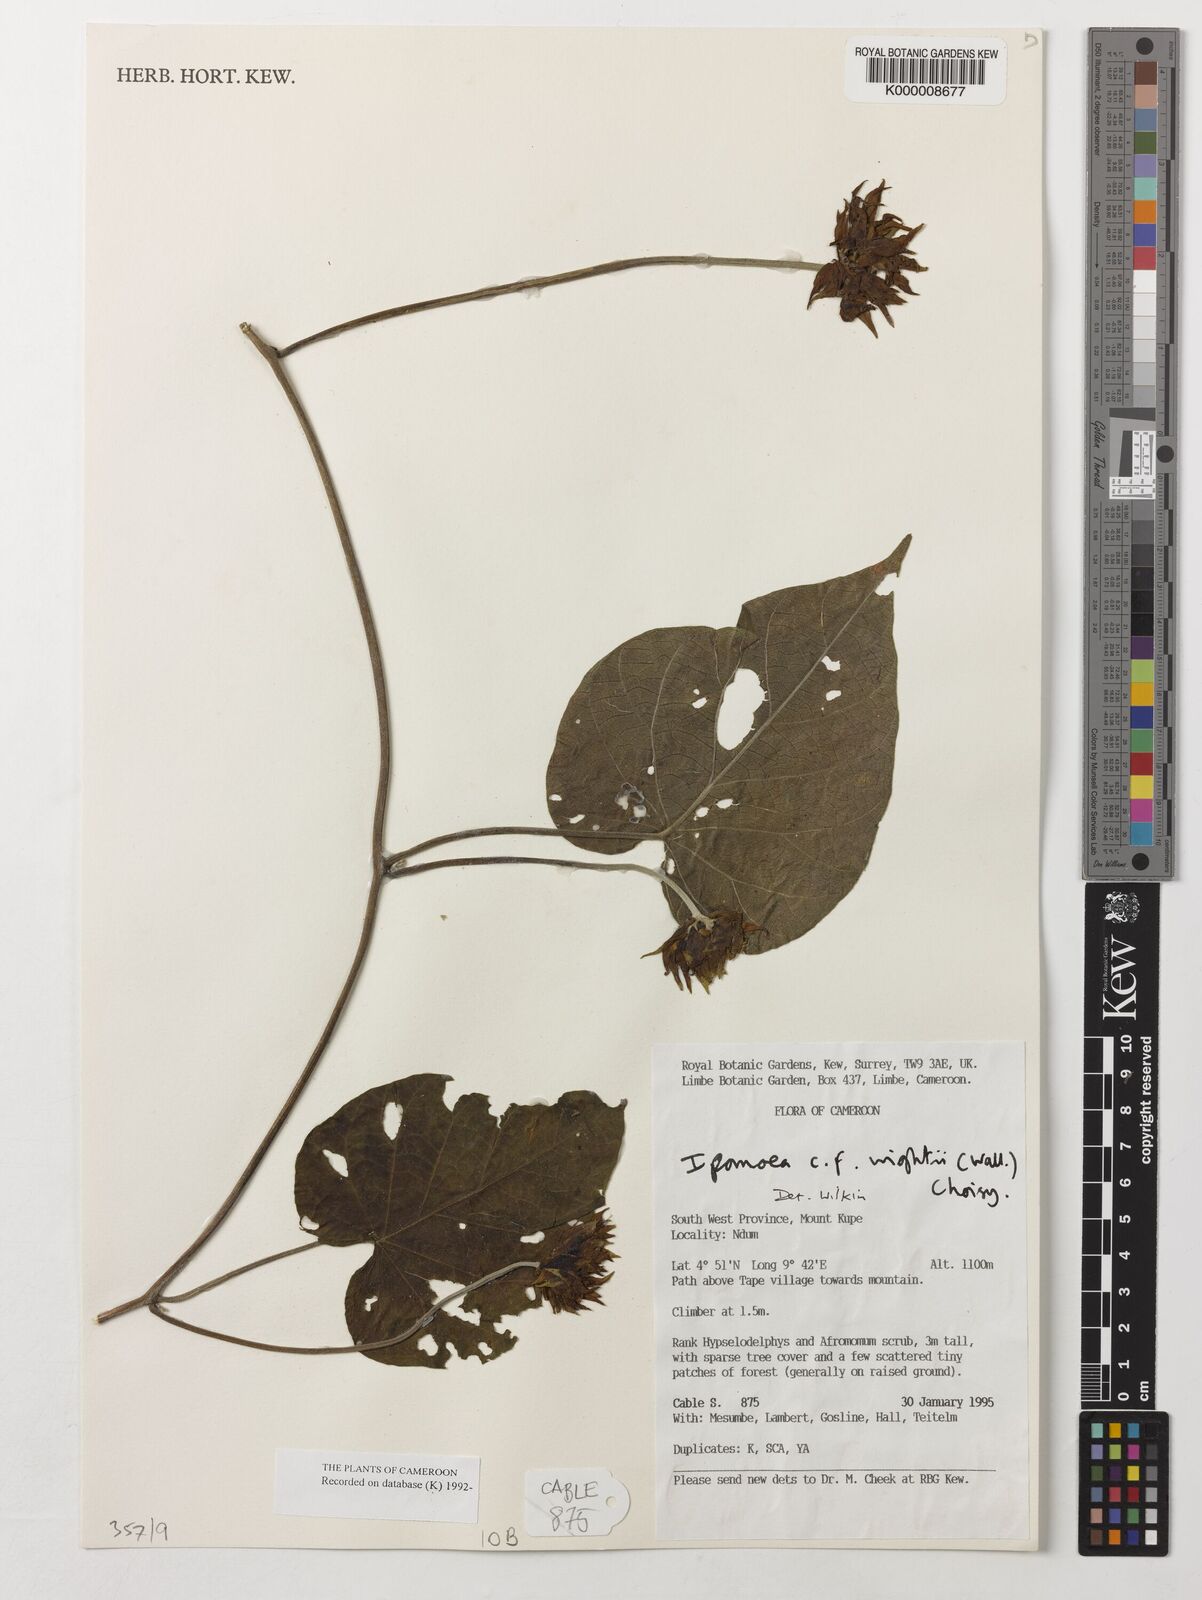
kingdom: Plantae
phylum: Tracheophyta
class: Magnoliopsida
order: Solanales
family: Convolvulaceae
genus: Ipomoea
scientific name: Ipomoea wightii
